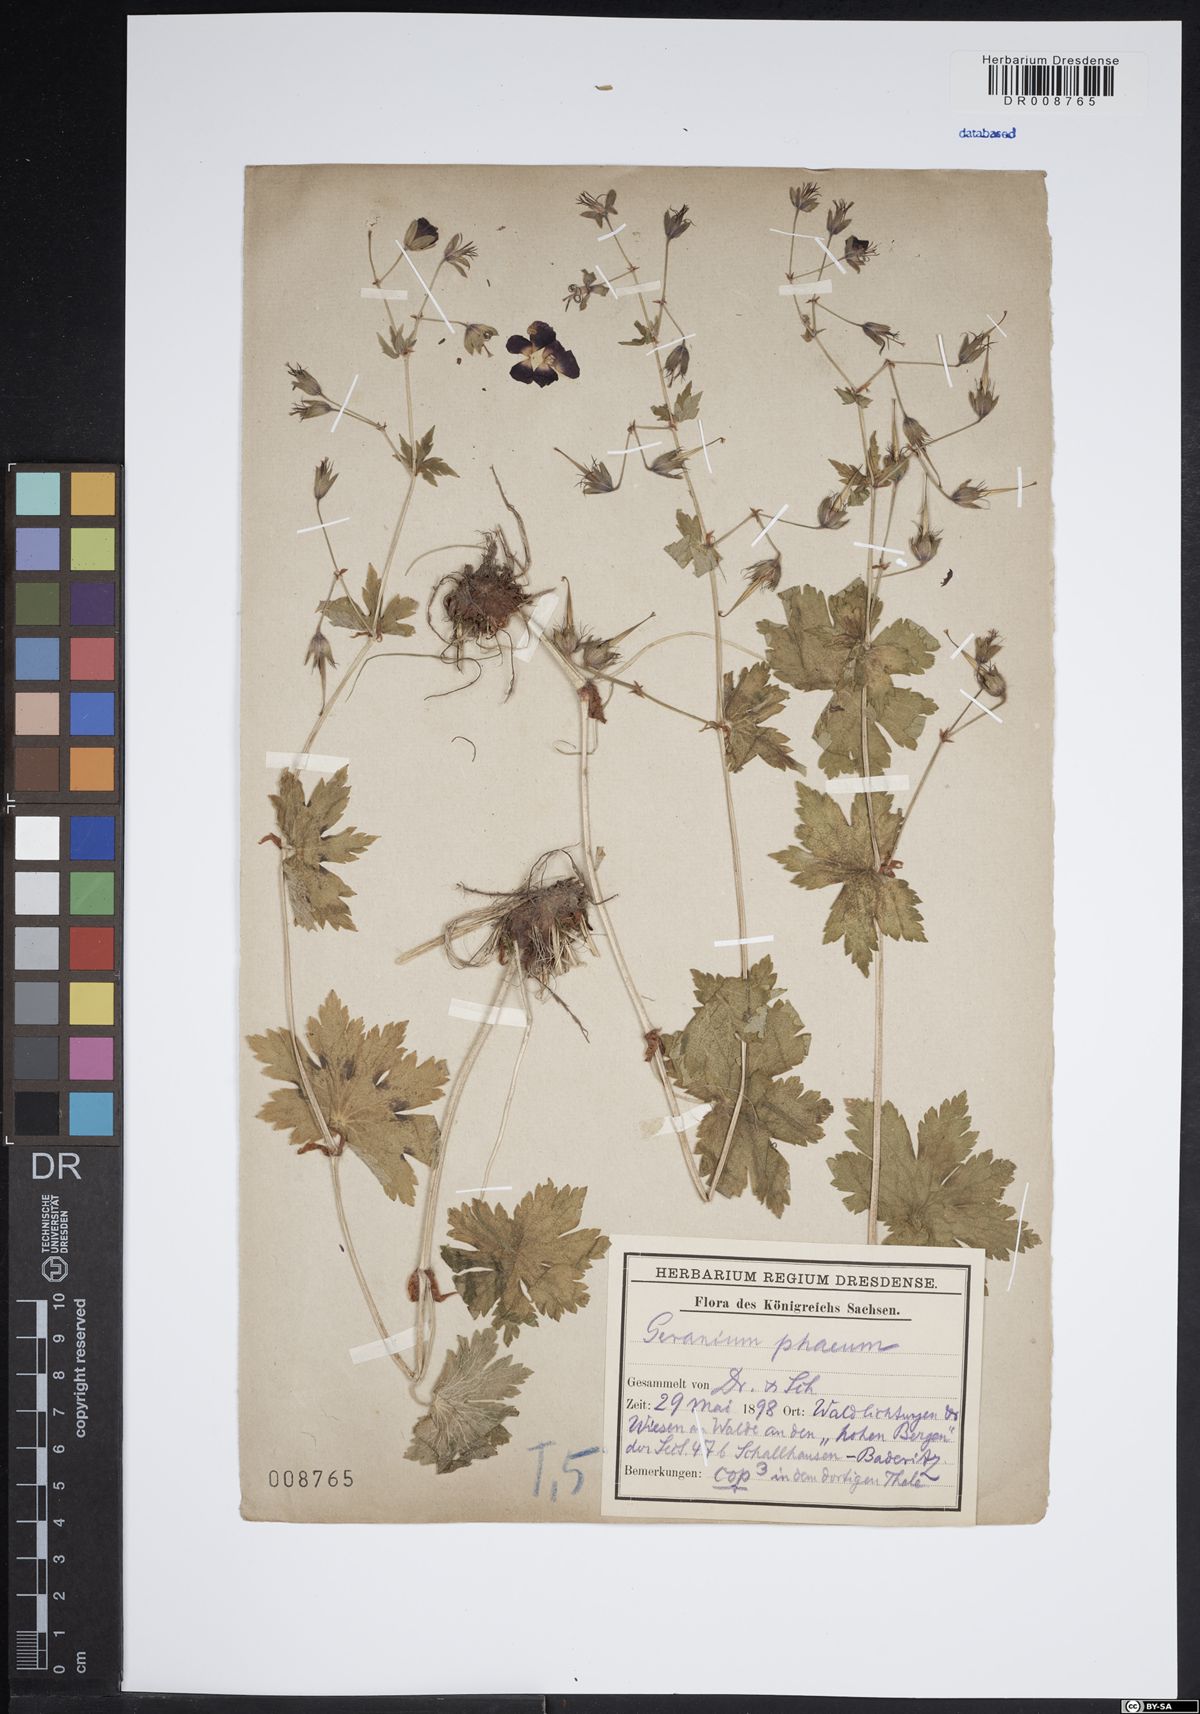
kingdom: Plantae
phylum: Tracheophyta
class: Magnoliopsida
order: Geraniales
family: Geraniaceae
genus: Geranium
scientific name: Geranium phaeum
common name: Dusky crane's-bill
